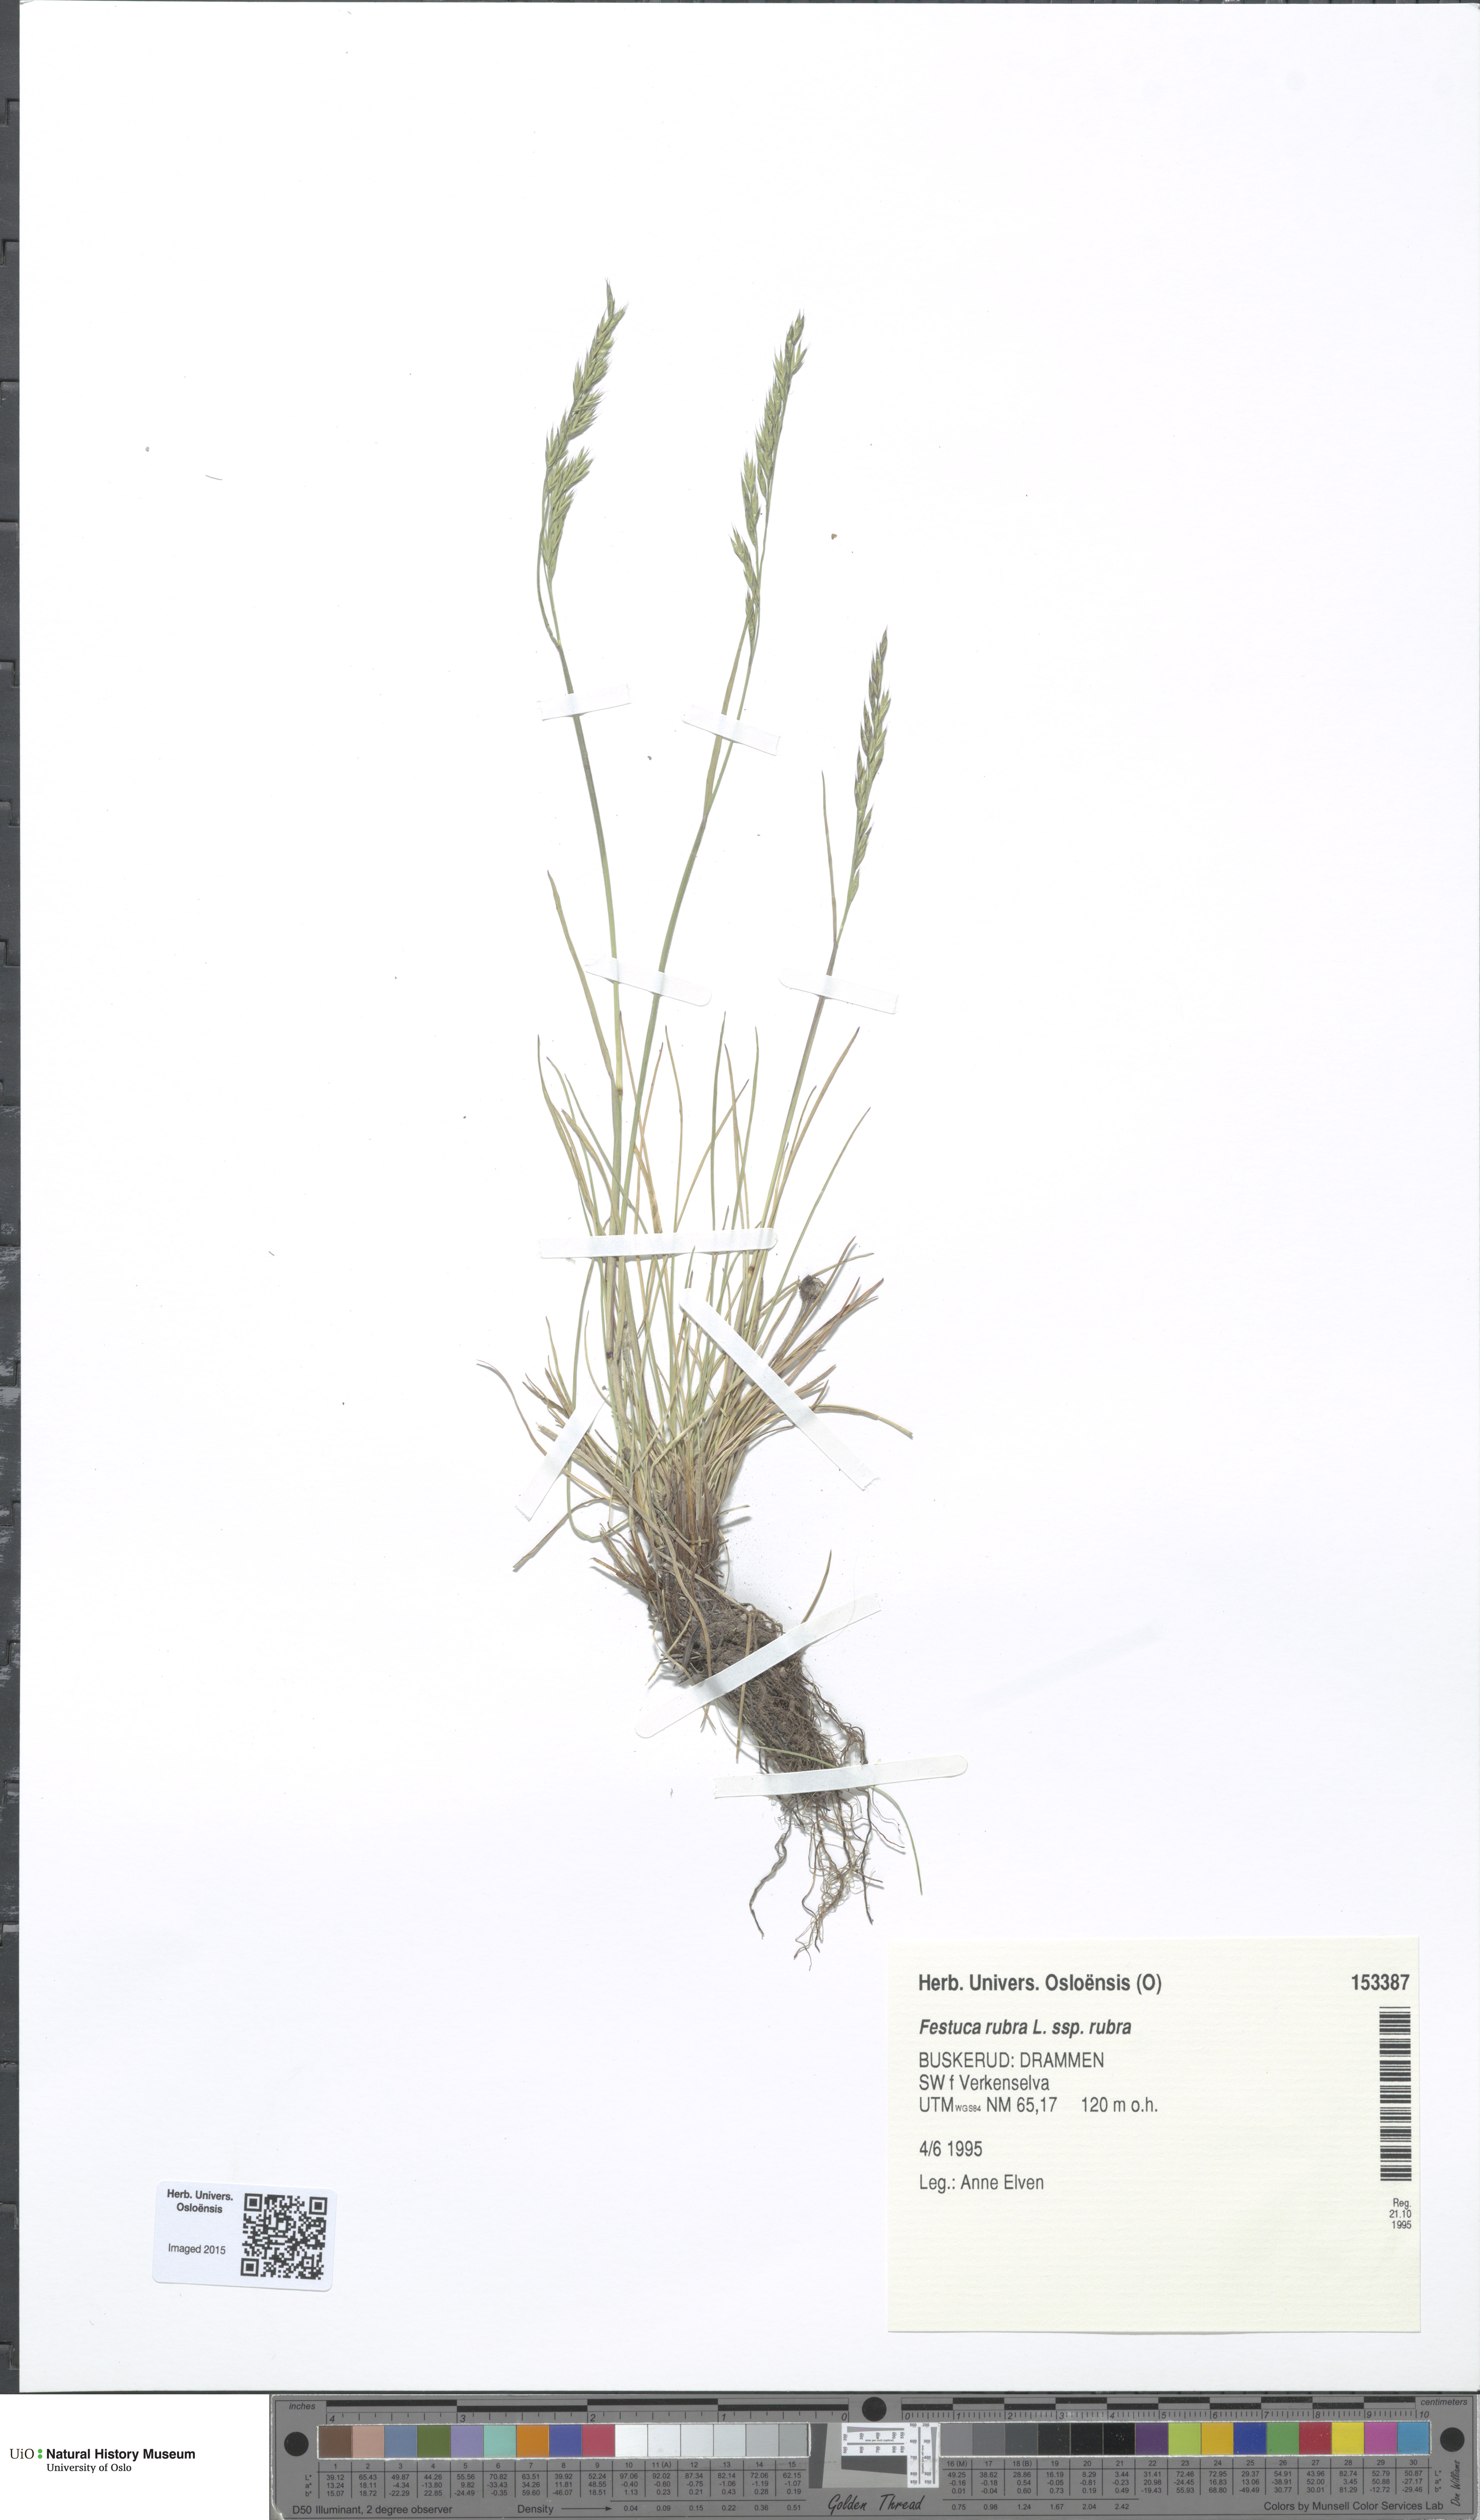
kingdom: Plantae
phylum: Tracheophyta
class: Liliopsida
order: Poales
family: Poaceae
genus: Festuca
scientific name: Festuca rubra
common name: Red fescue
